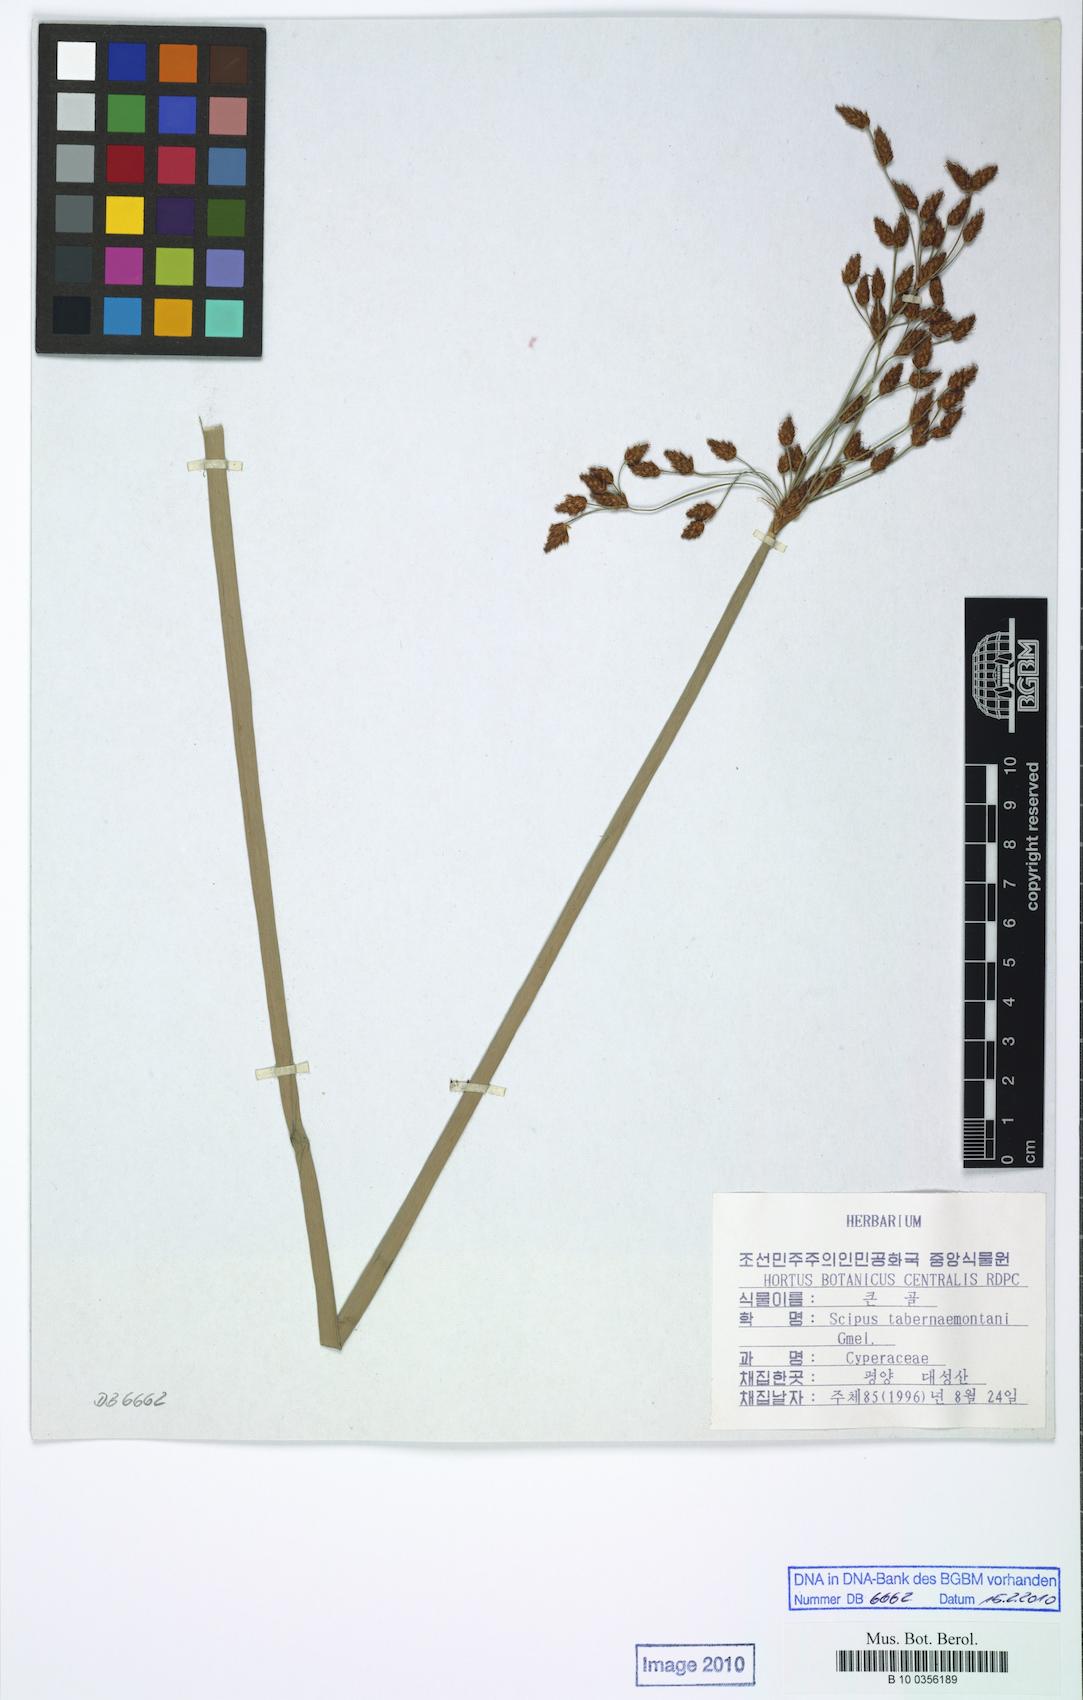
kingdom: Plantae
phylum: Tracheophyta
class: Liliopsida
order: Poales
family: Cyperaceae
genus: Schoenoplectus
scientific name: Schoenoplectus tabernaemontani
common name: Grey club-rush
